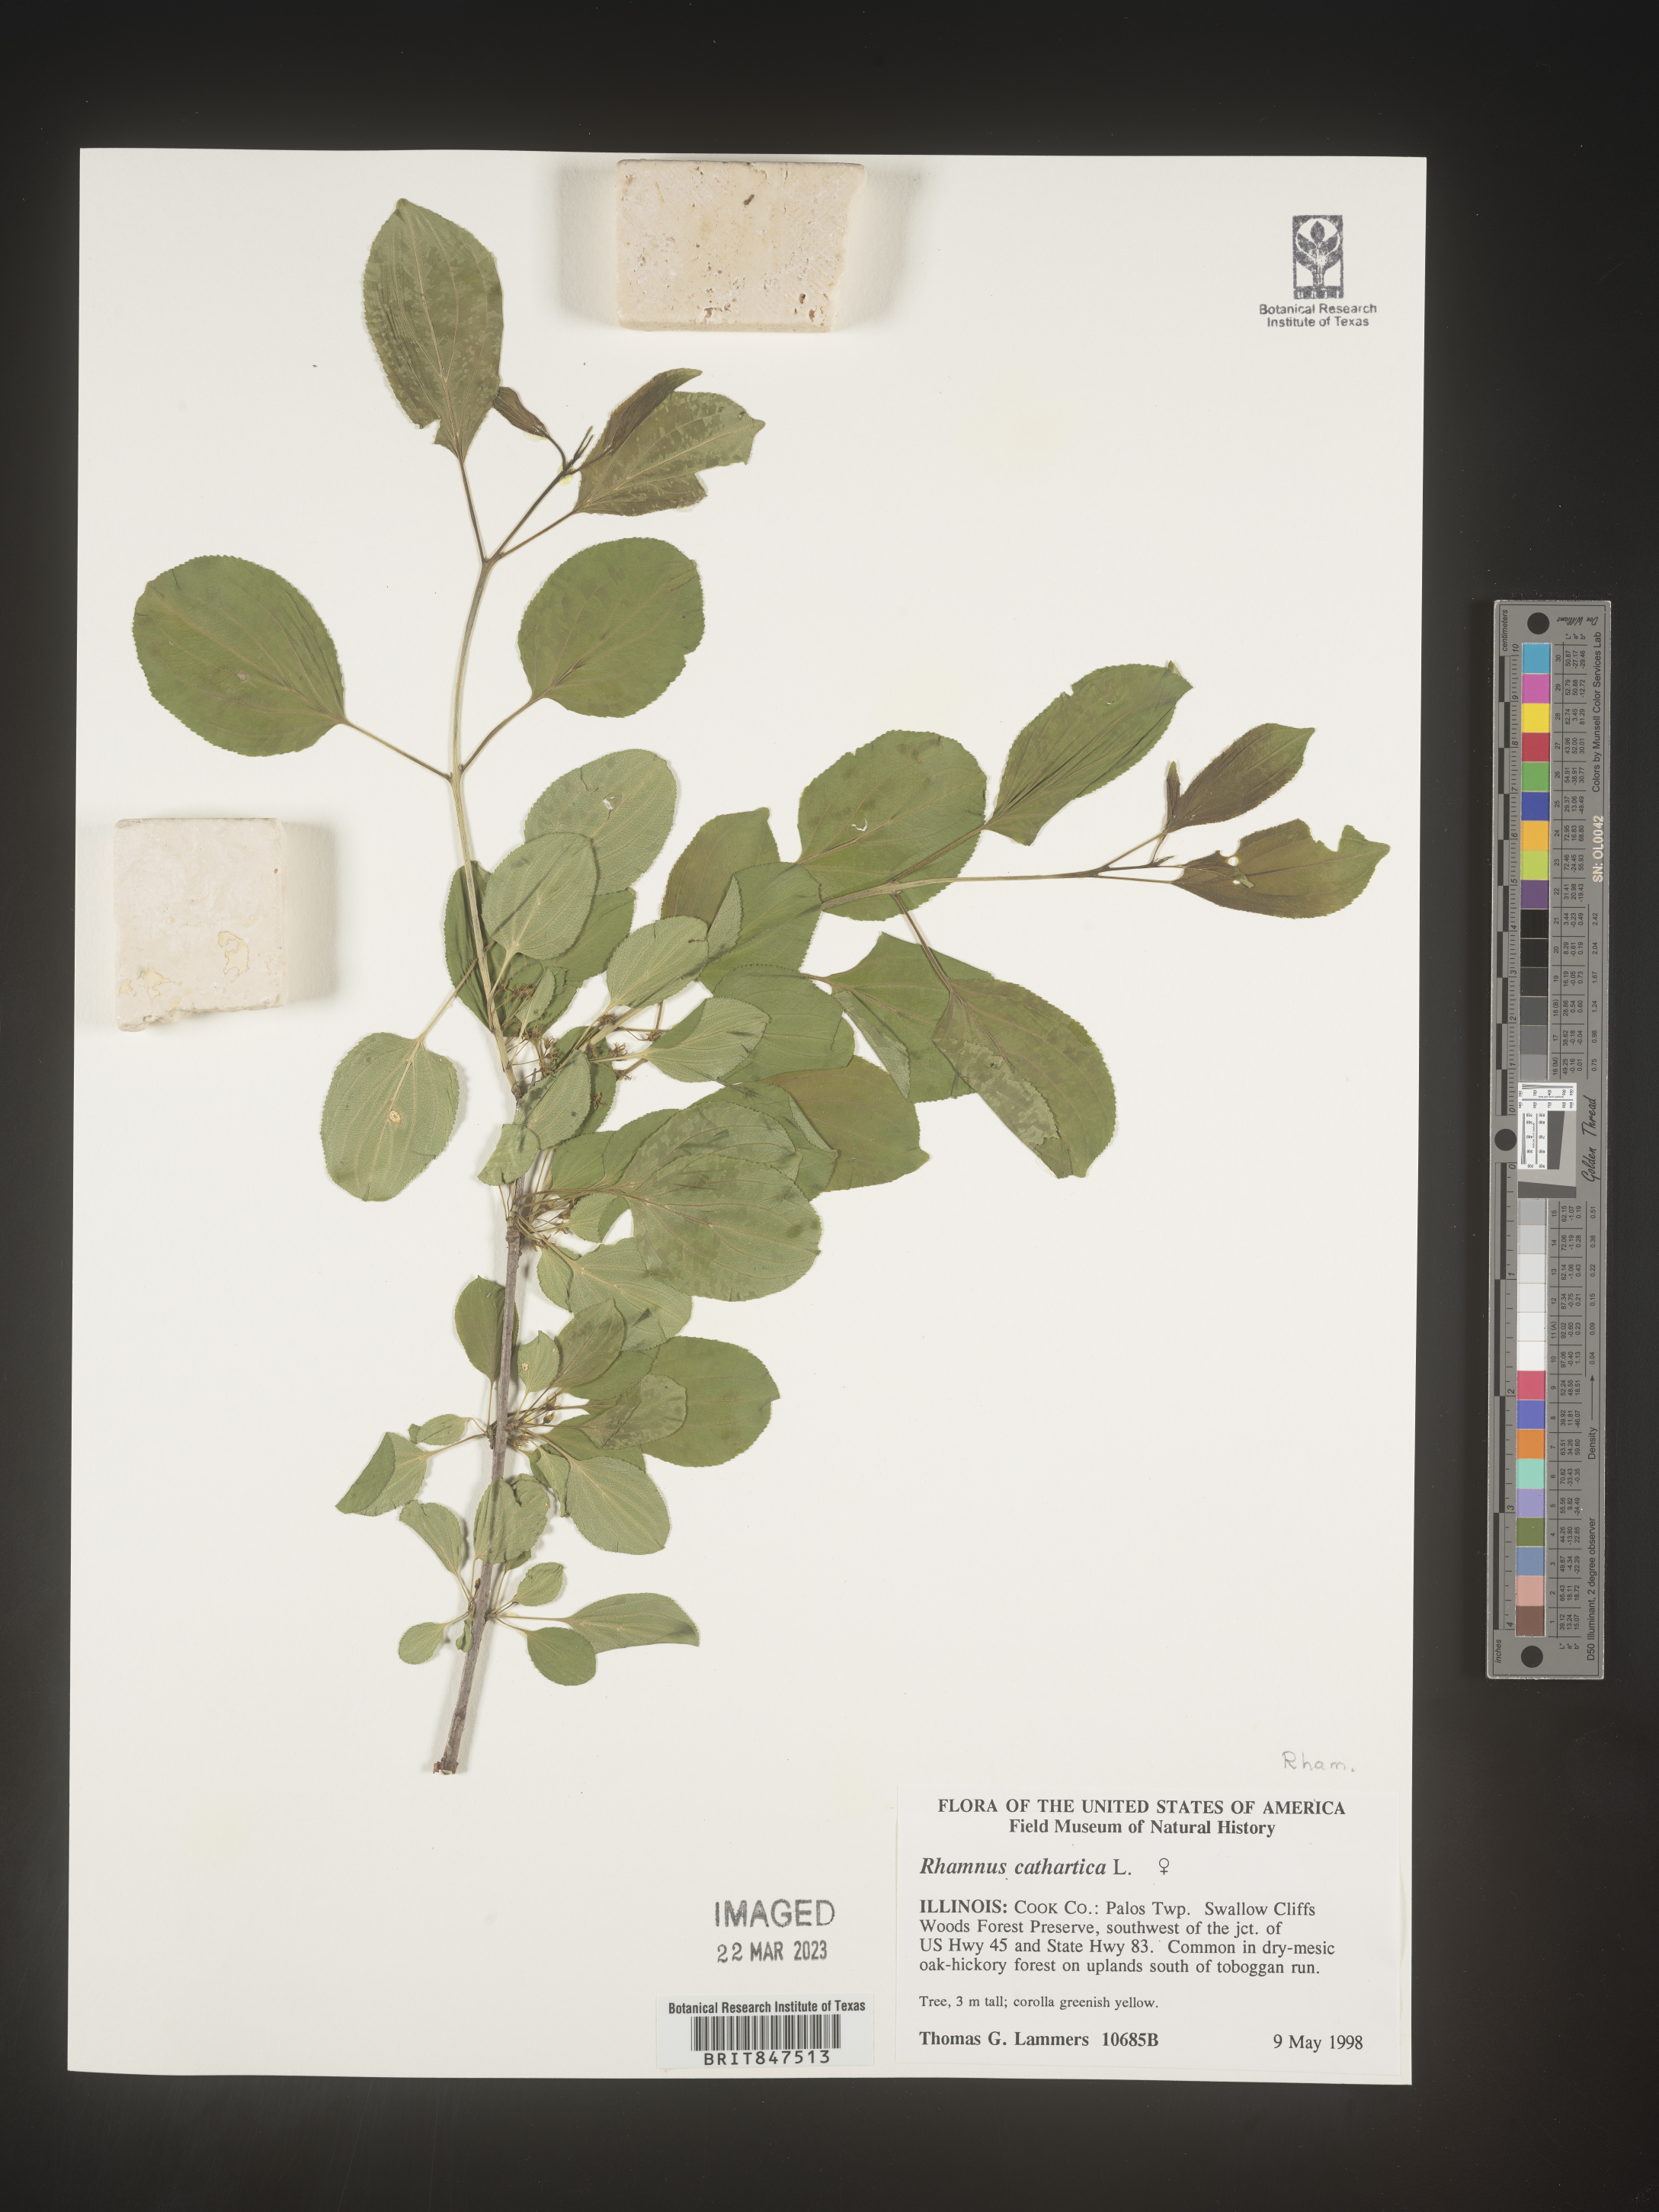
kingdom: Plantae
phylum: Tracheophyta
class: Magnoliopsida
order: Rosales
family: Rhamnaceae
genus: Rhamnus
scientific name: Rhamnus cathartica
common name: Common buckthorn
